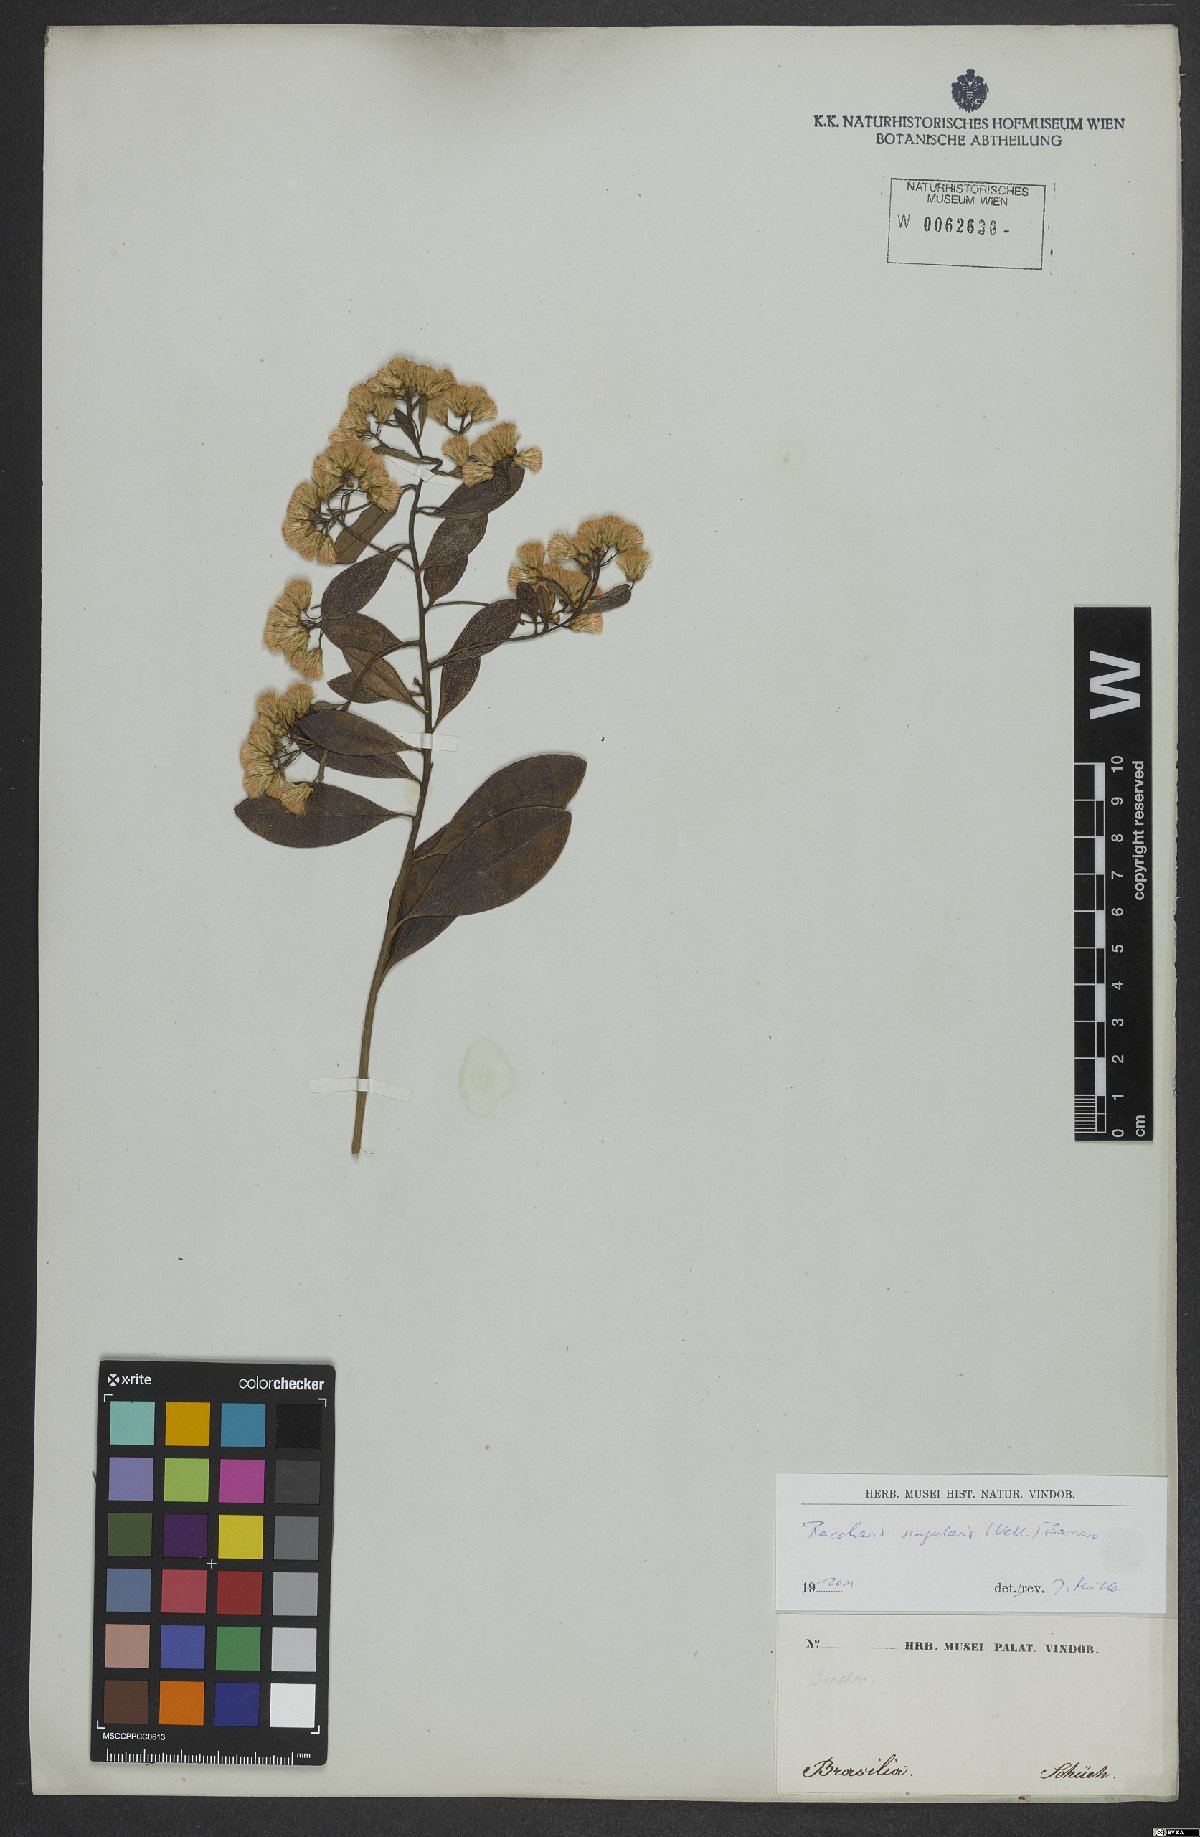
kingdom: Plantae
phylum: Tracheophyta
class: Magnoliopsida
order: Asterales
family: Asteraceae
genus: Baccharis
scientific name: Baccharis singularis
